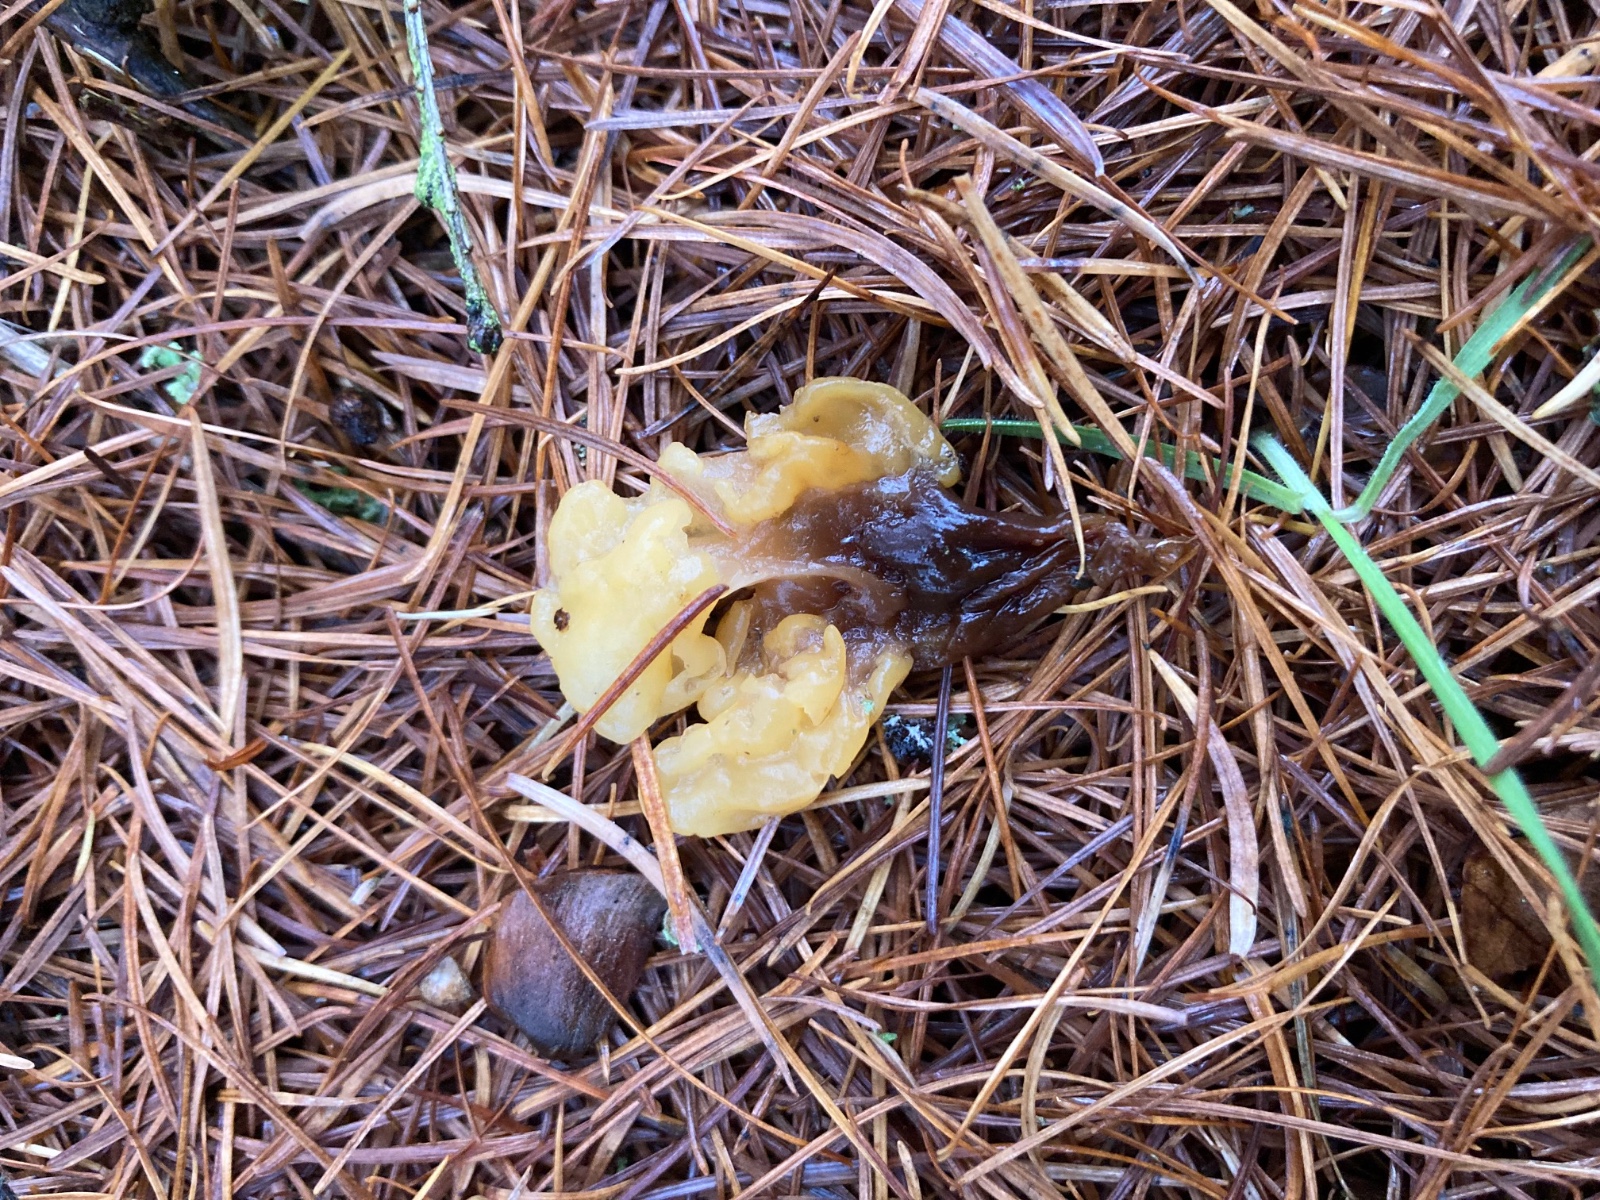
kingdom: Fungi
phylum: Ascomycota
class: Leotiomycetes
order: Rhytismatales
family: Cudoniaceae
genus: Spathularia
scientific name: Spathularia flavida
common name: gul spatelsvamp
